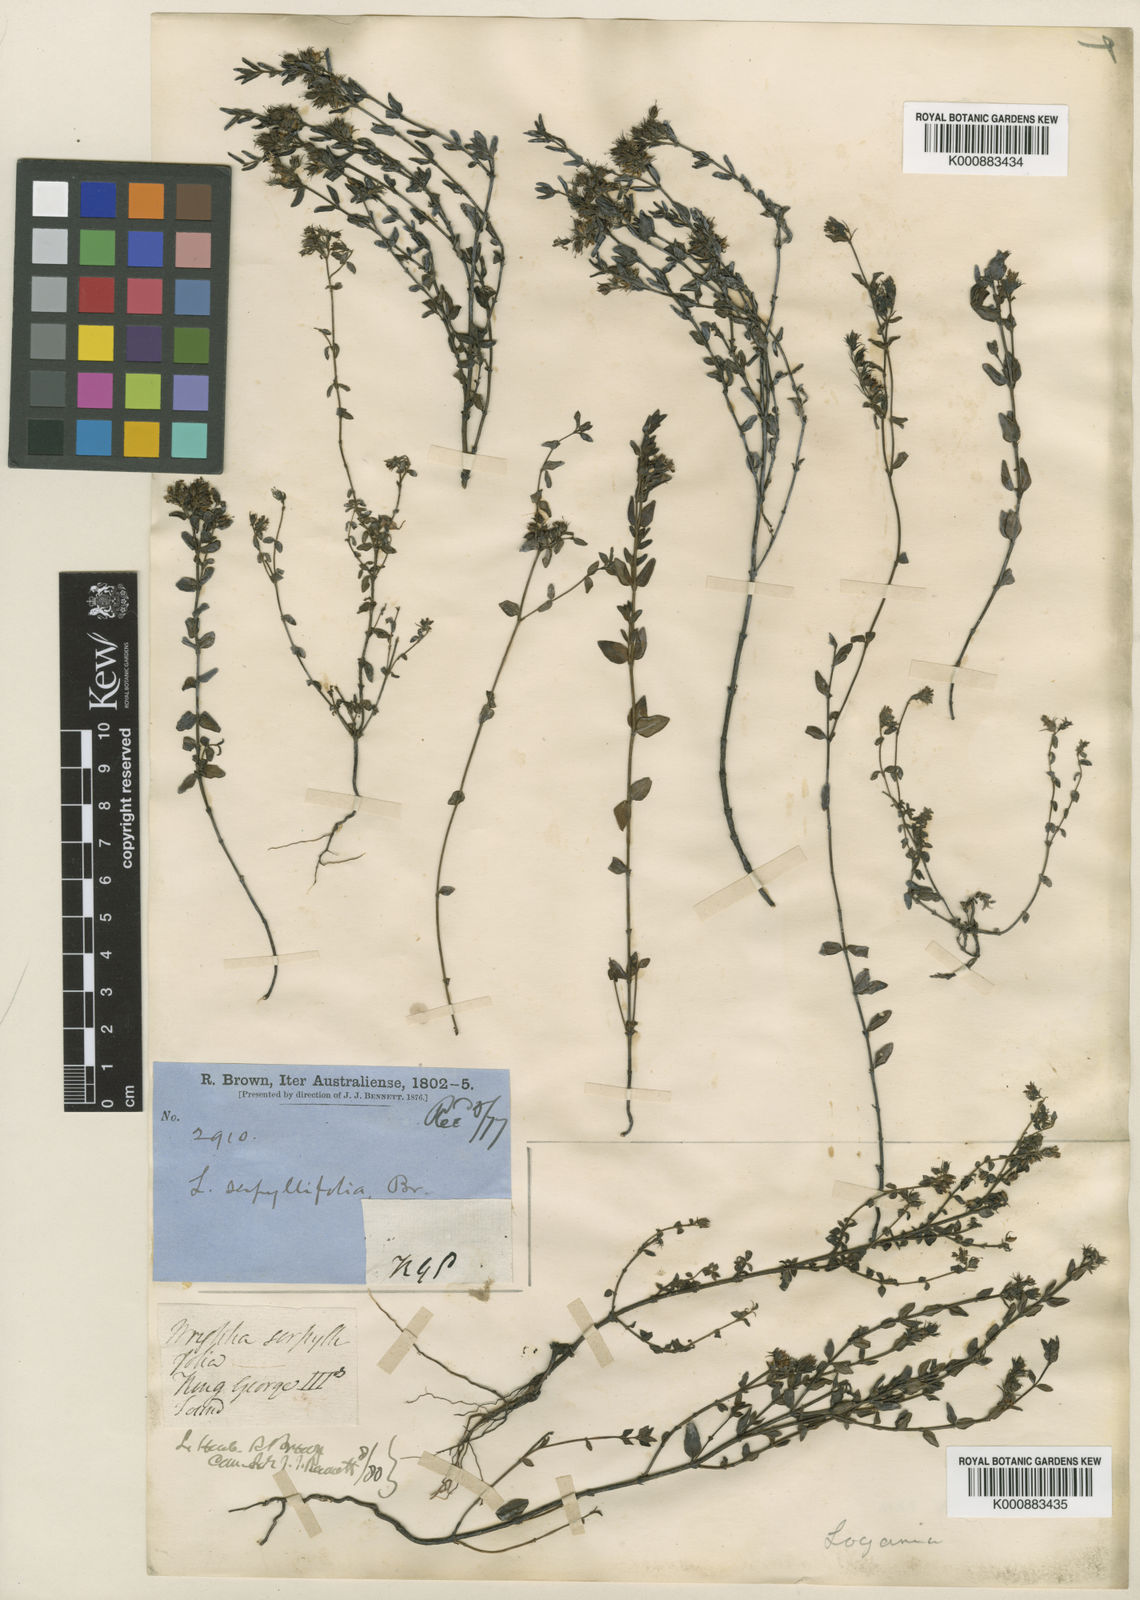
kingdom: Plantae
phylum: Tracheophyta
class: Magnoliopsida
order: Gentianales
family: Loganiaceae
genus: Orianthera
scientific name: Orianthera serpyllifolia
